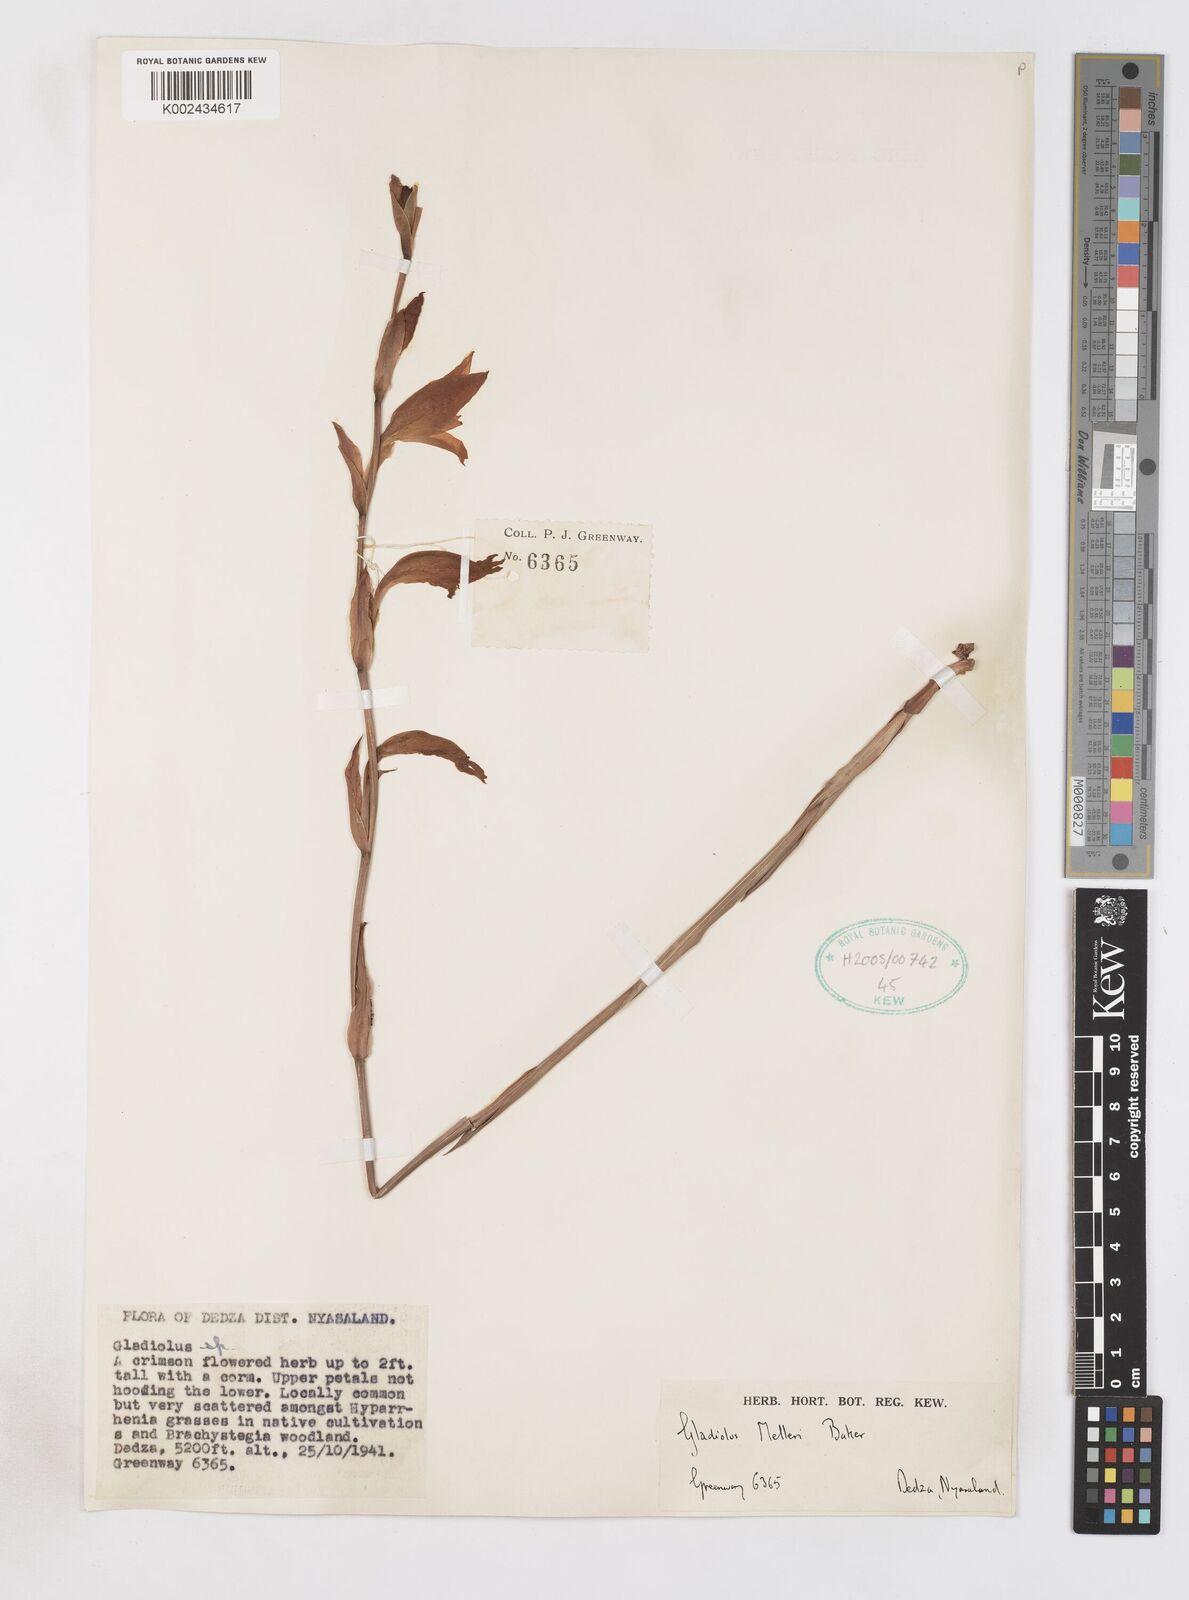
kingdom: Plantae
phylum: Tracheophyta
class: Liliopsida
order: Asparagales
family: Iridaceae
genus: Gladiolus
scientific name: Gladiolus melleri
